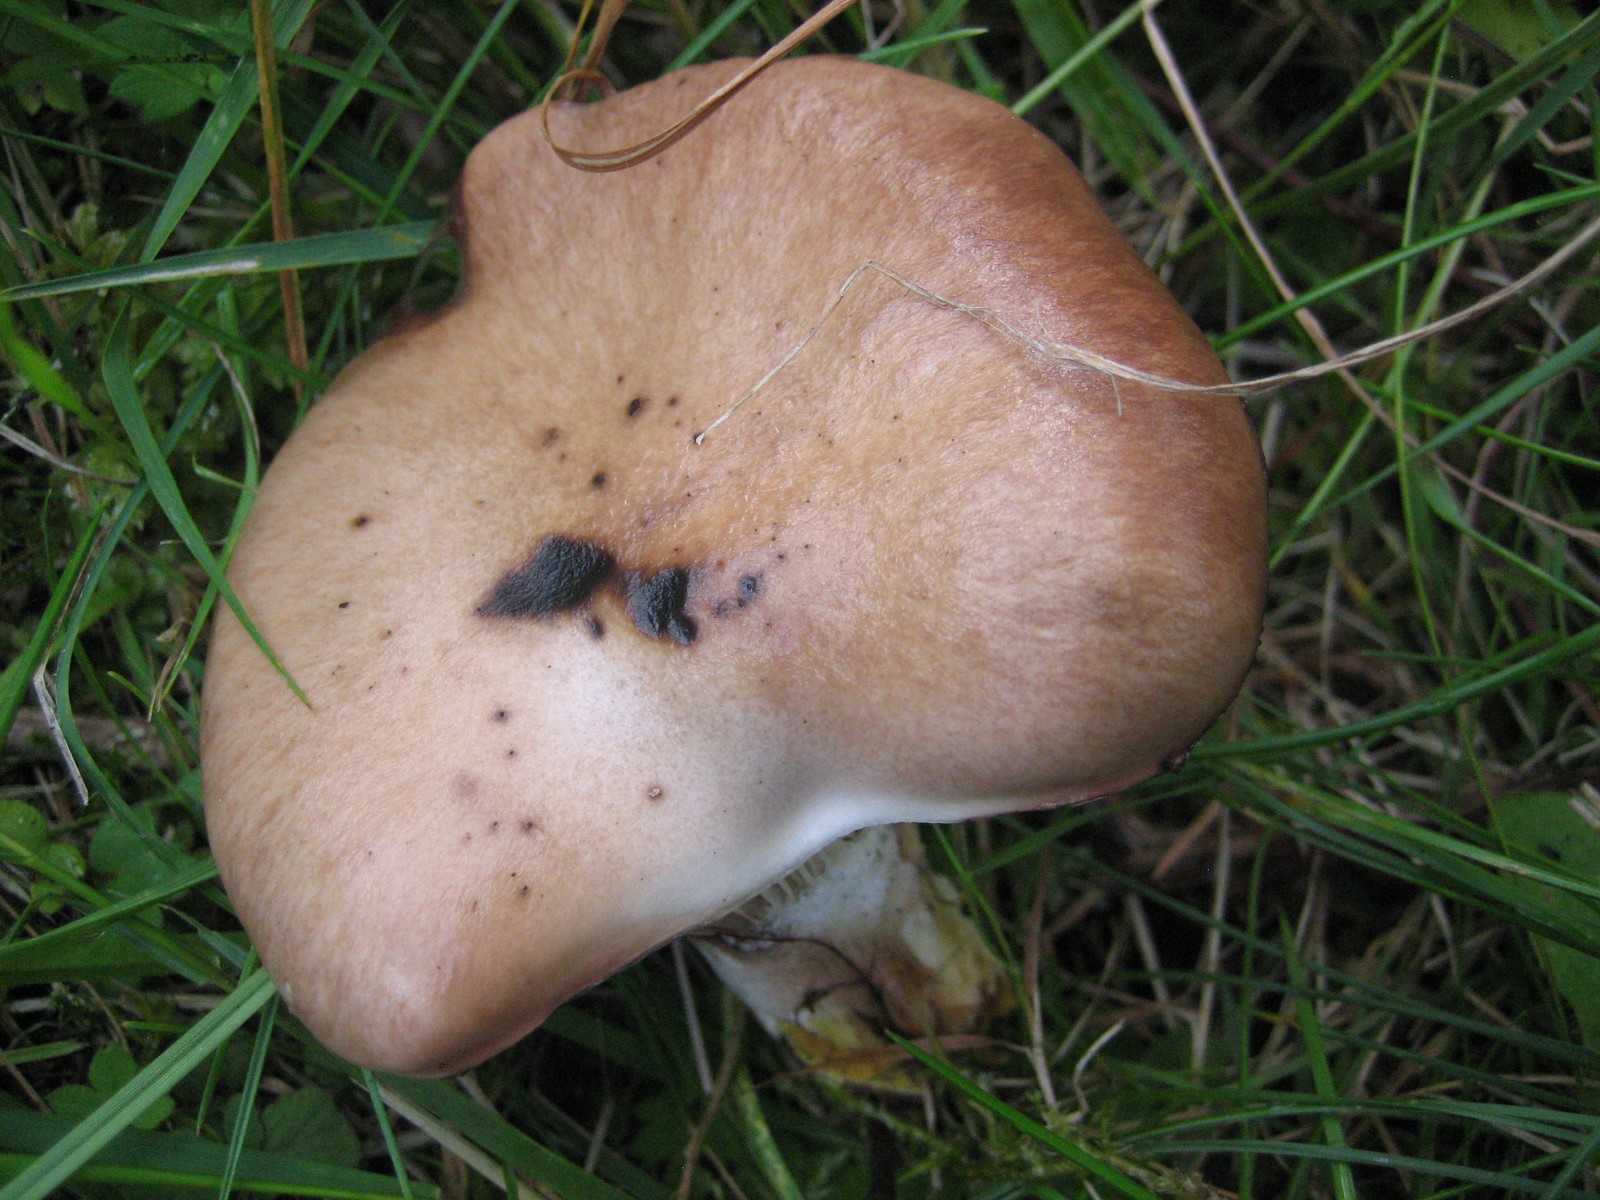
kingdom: Fungi
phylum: Basidiomycota
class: Agaricomycetes
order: Boletales
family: Gomphidiaceae
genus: Gomphidius
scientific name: Gomphidius glutinosus
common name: grå slimslør
